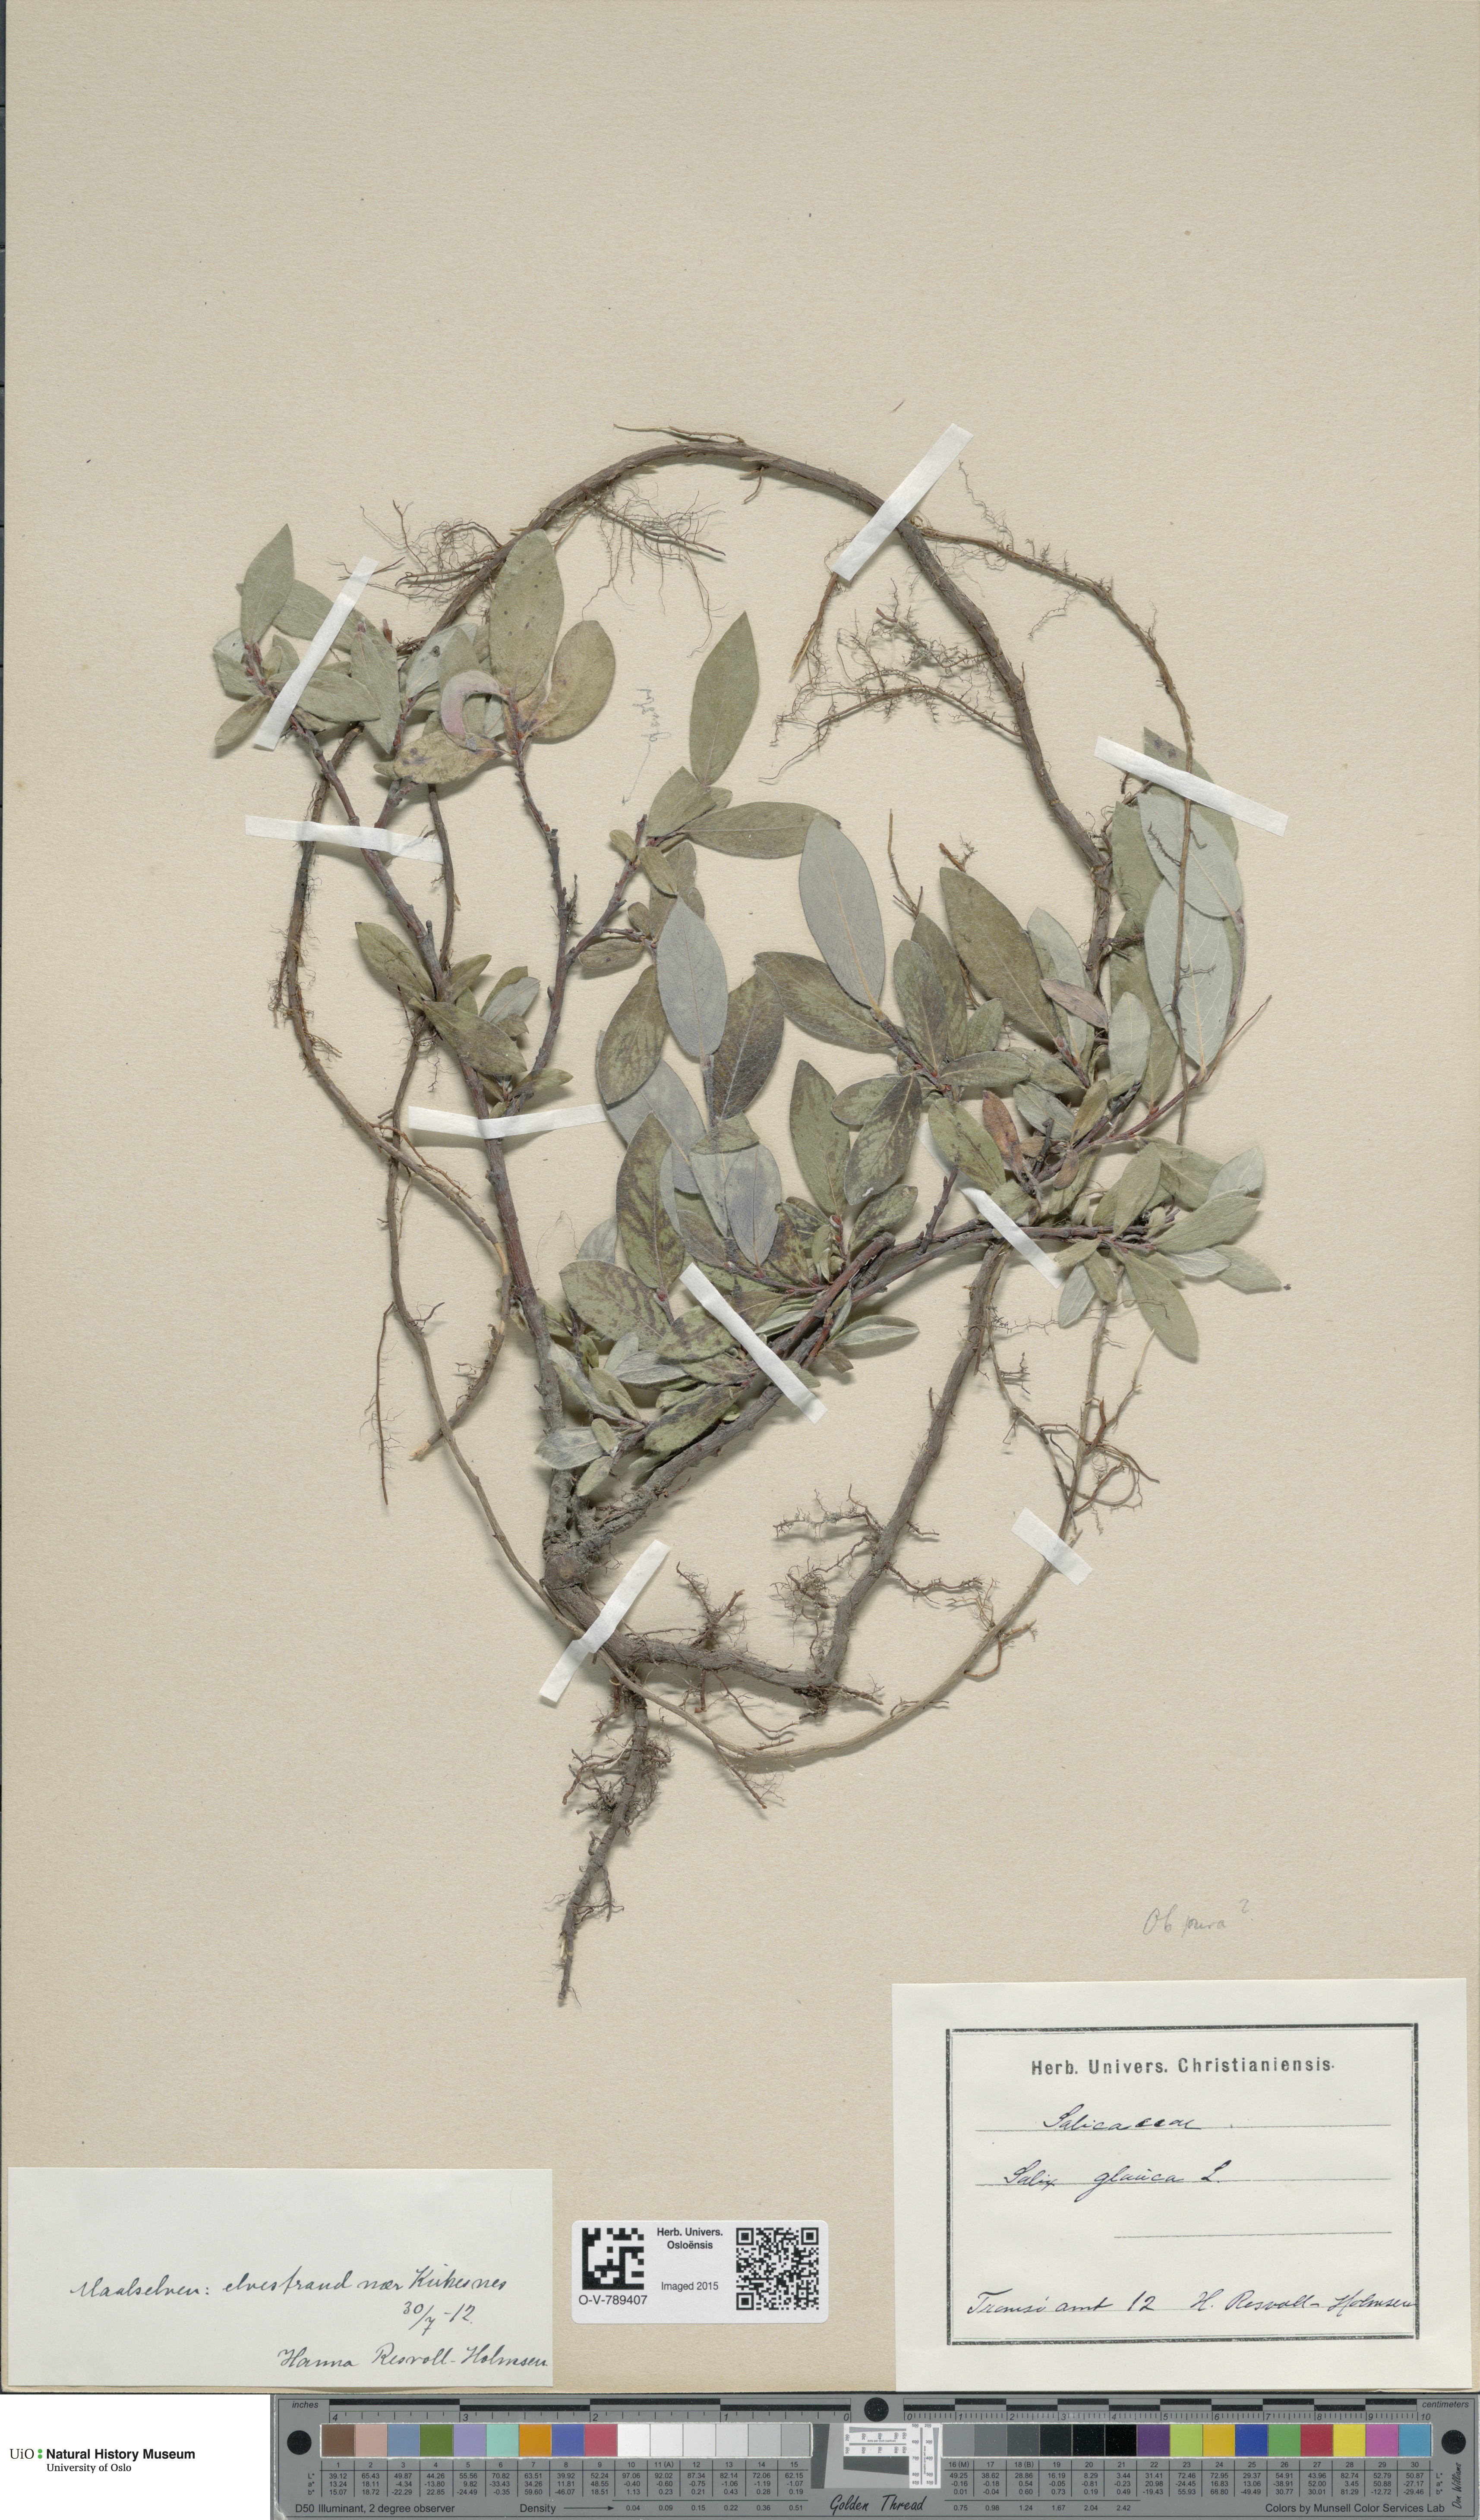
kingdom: Plantae
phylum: Tracheophyta
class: Magnoliopsida
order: Malpighiales
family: Salicaceae
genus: Salix
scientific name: Salix glauca
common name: Glaucous willow
